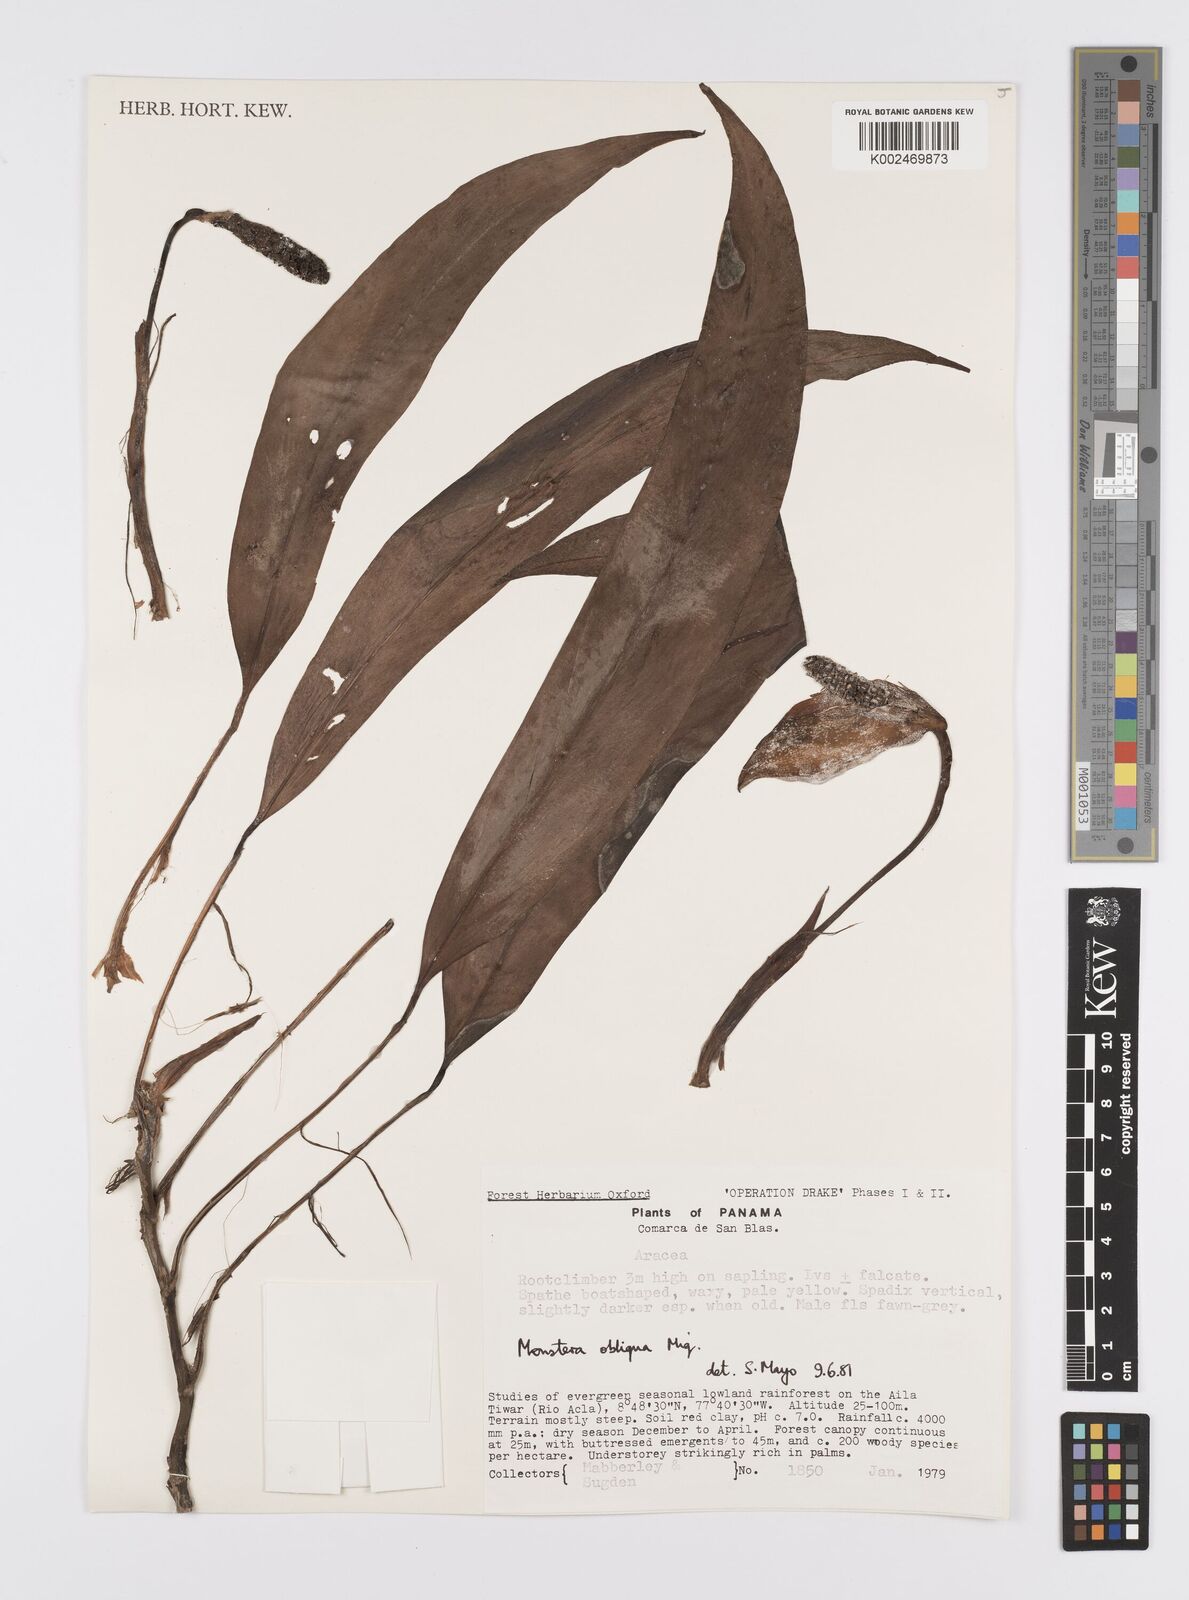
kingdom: Plantae
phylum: Tracheophyta
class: Liliopsida
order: Alismatales
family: Araceae
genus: Monstera
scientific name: Monstera obliqua
